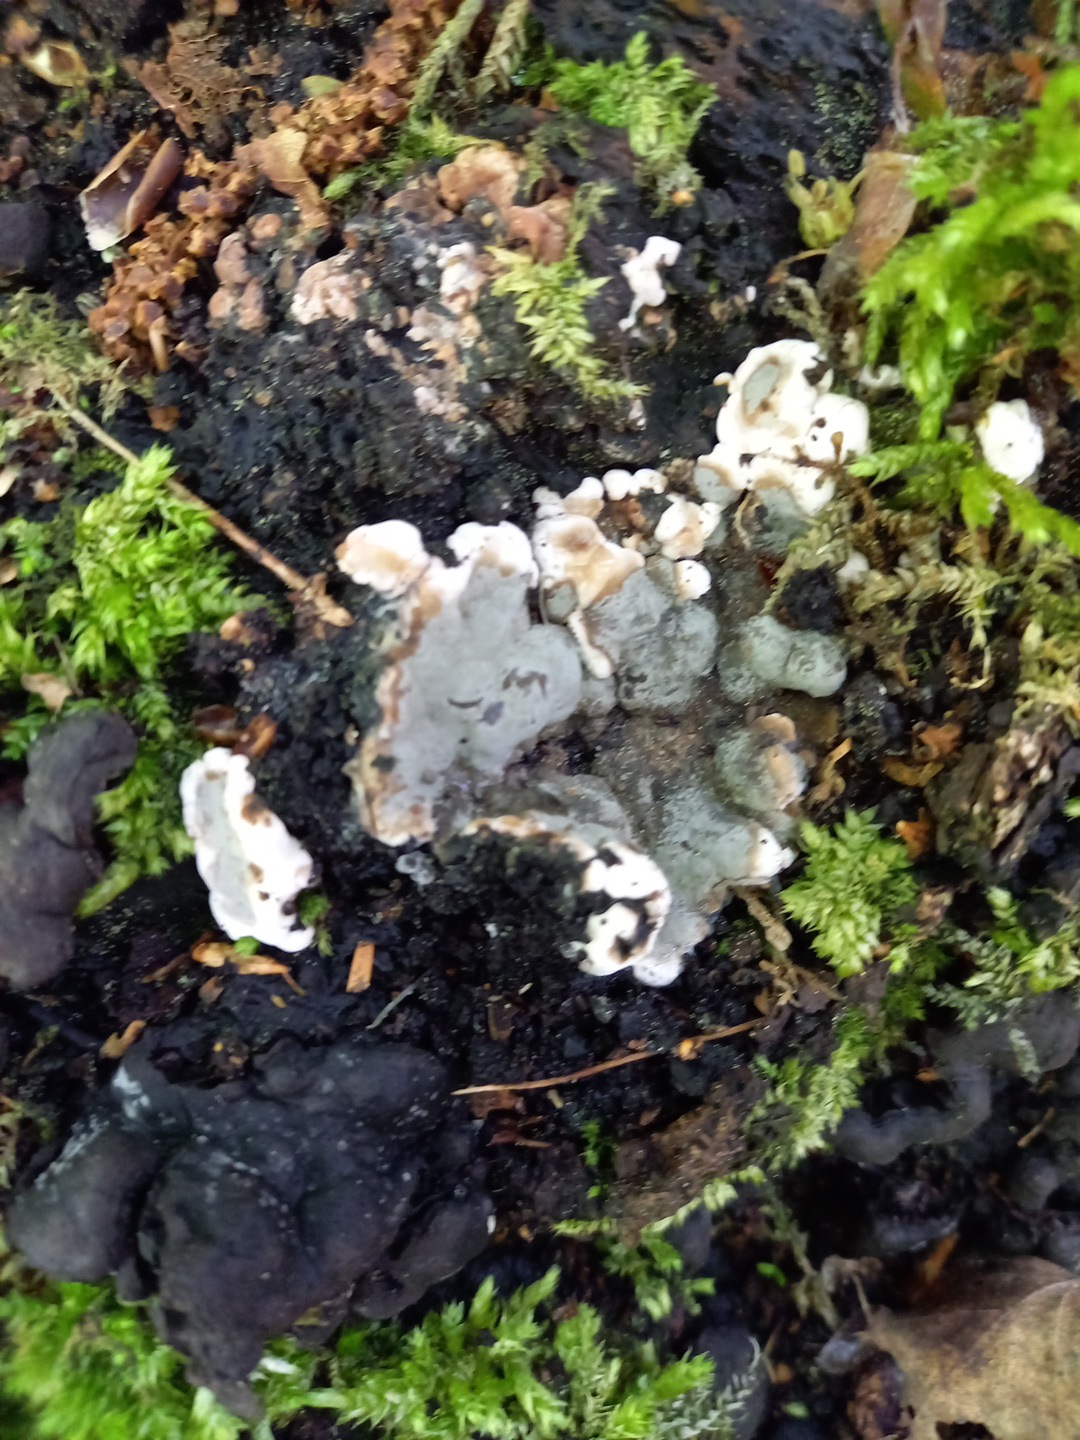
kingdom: Fungi
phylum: Ascomycota
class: Sordariomycetes
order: Xylariales
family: Xylariaceae
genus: Kretzschmaria
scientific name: Kretzschmaria deusta
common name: stor kulsvamp
